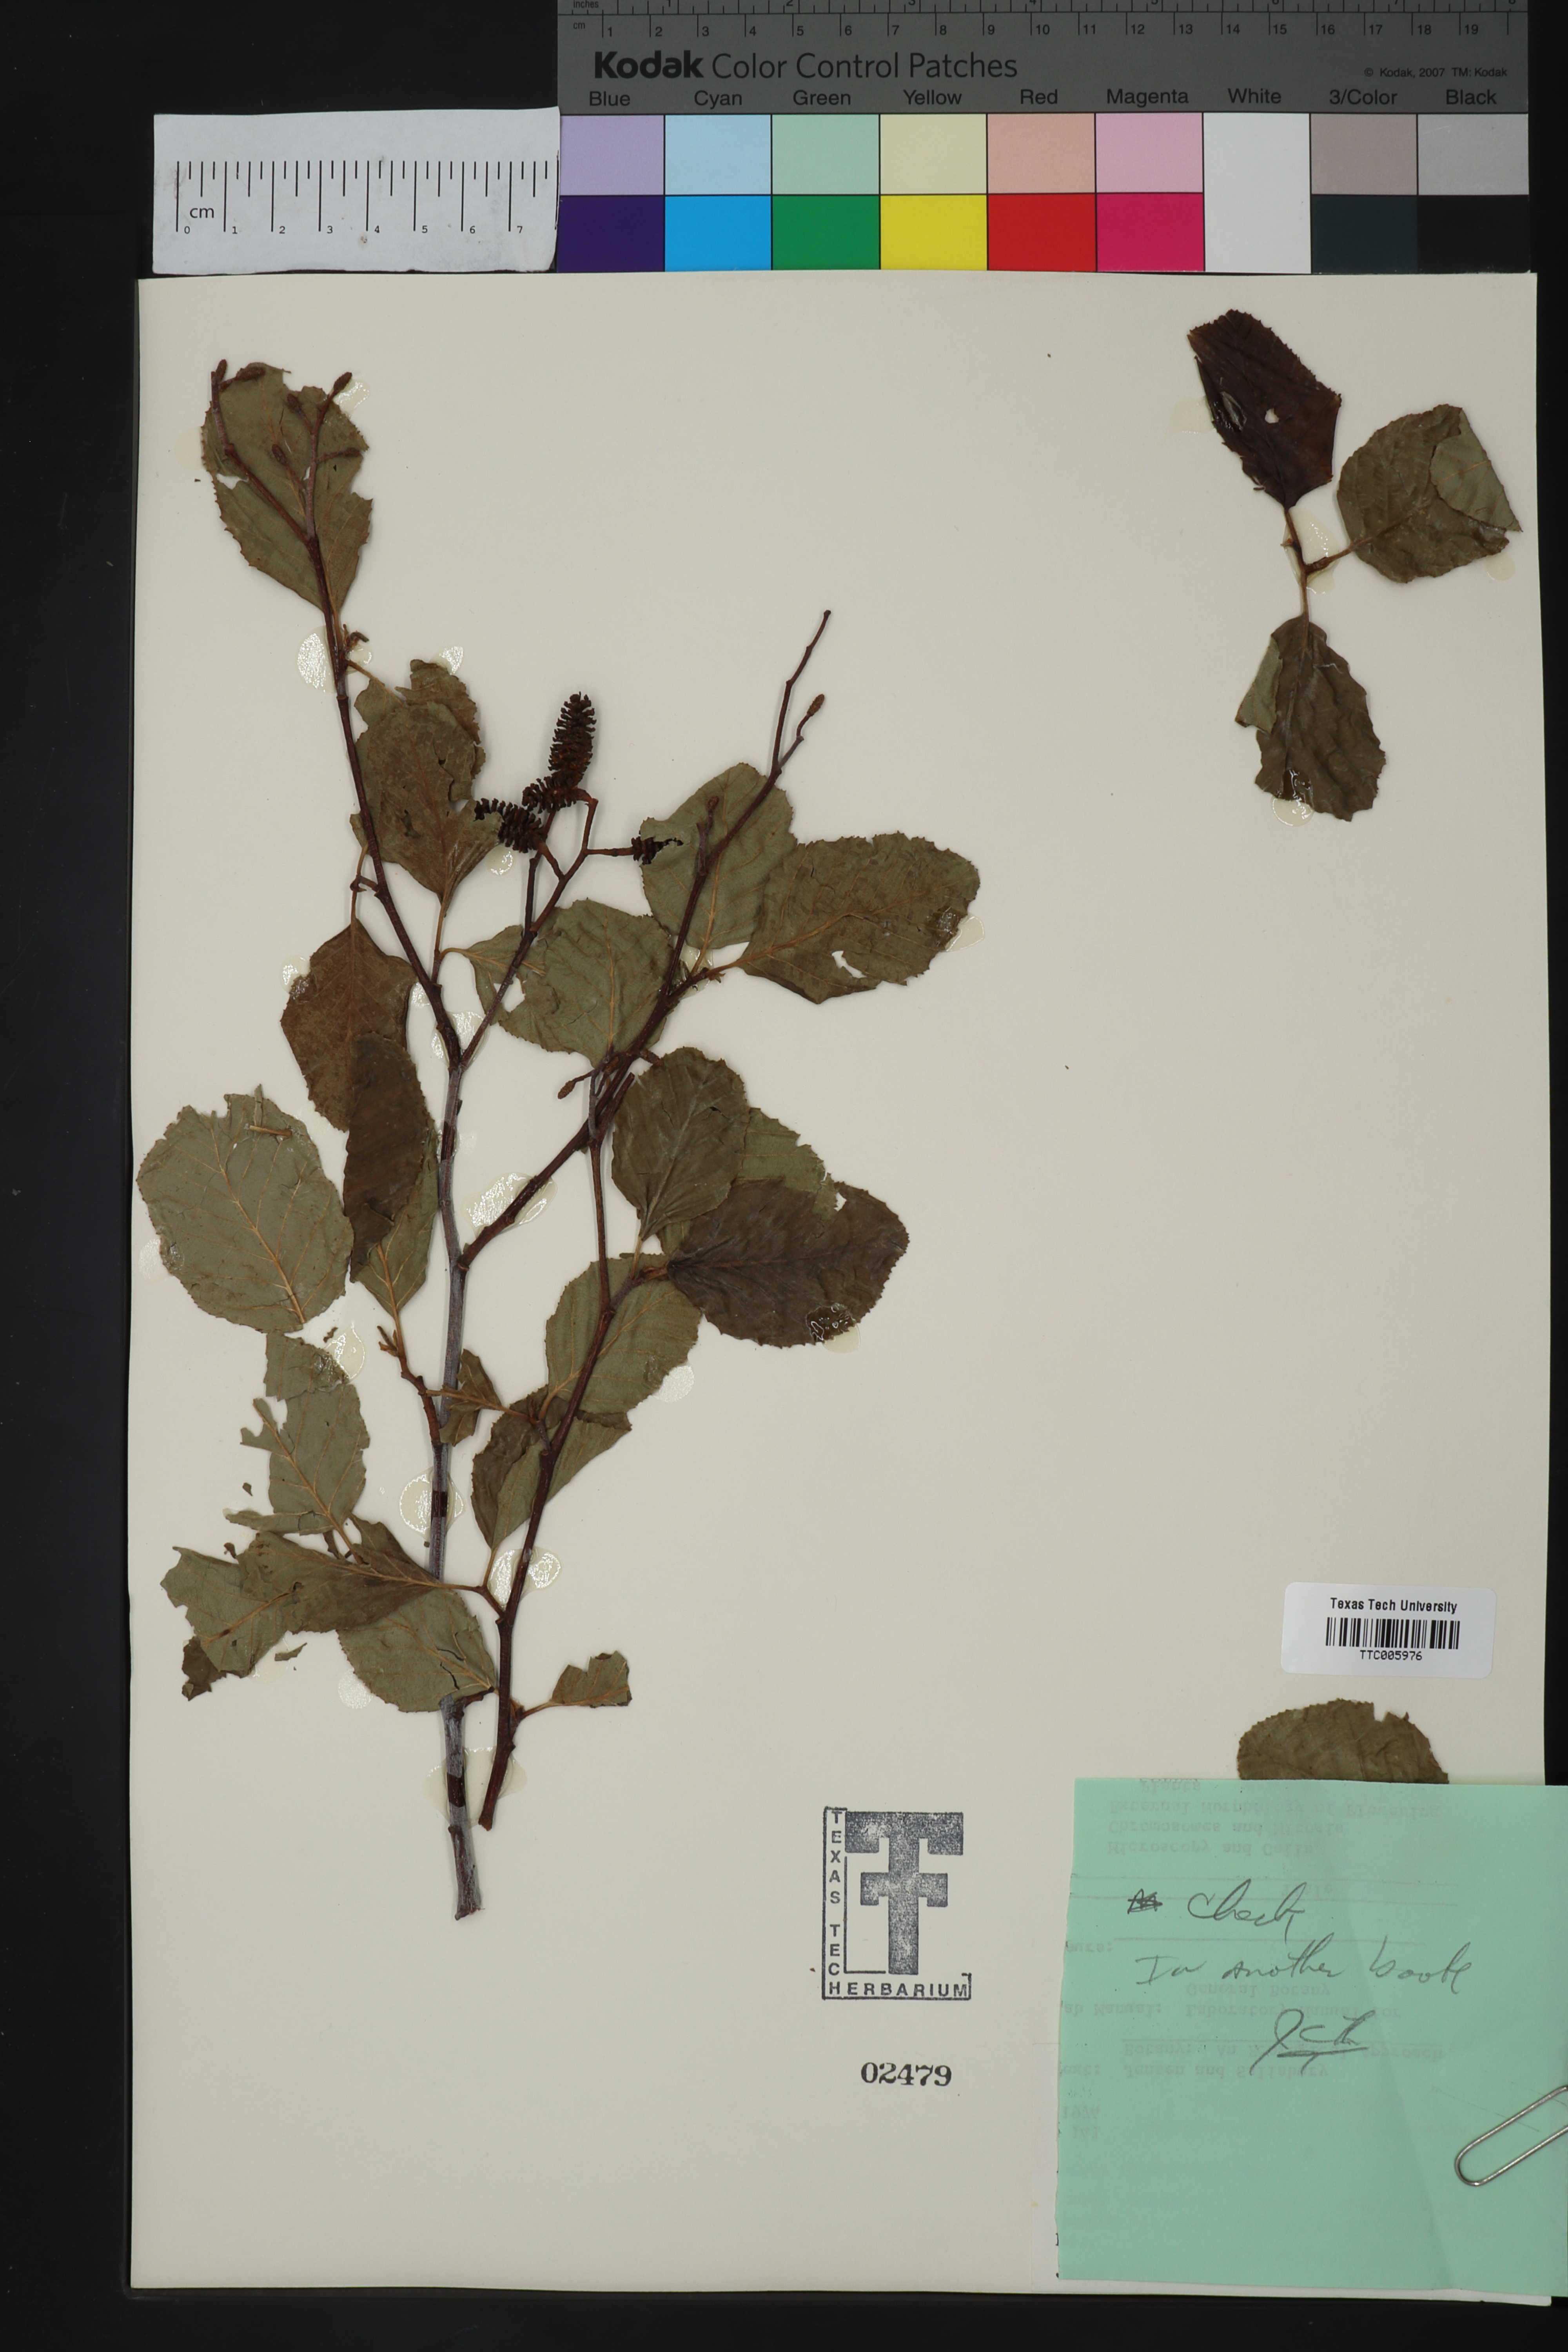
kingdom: Plantae
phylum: Tracheophyta
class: Magnoliopsida
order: Fagales
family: Betulaceae
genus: Alnus
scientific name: Alnus rhombifolia
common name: California alder
